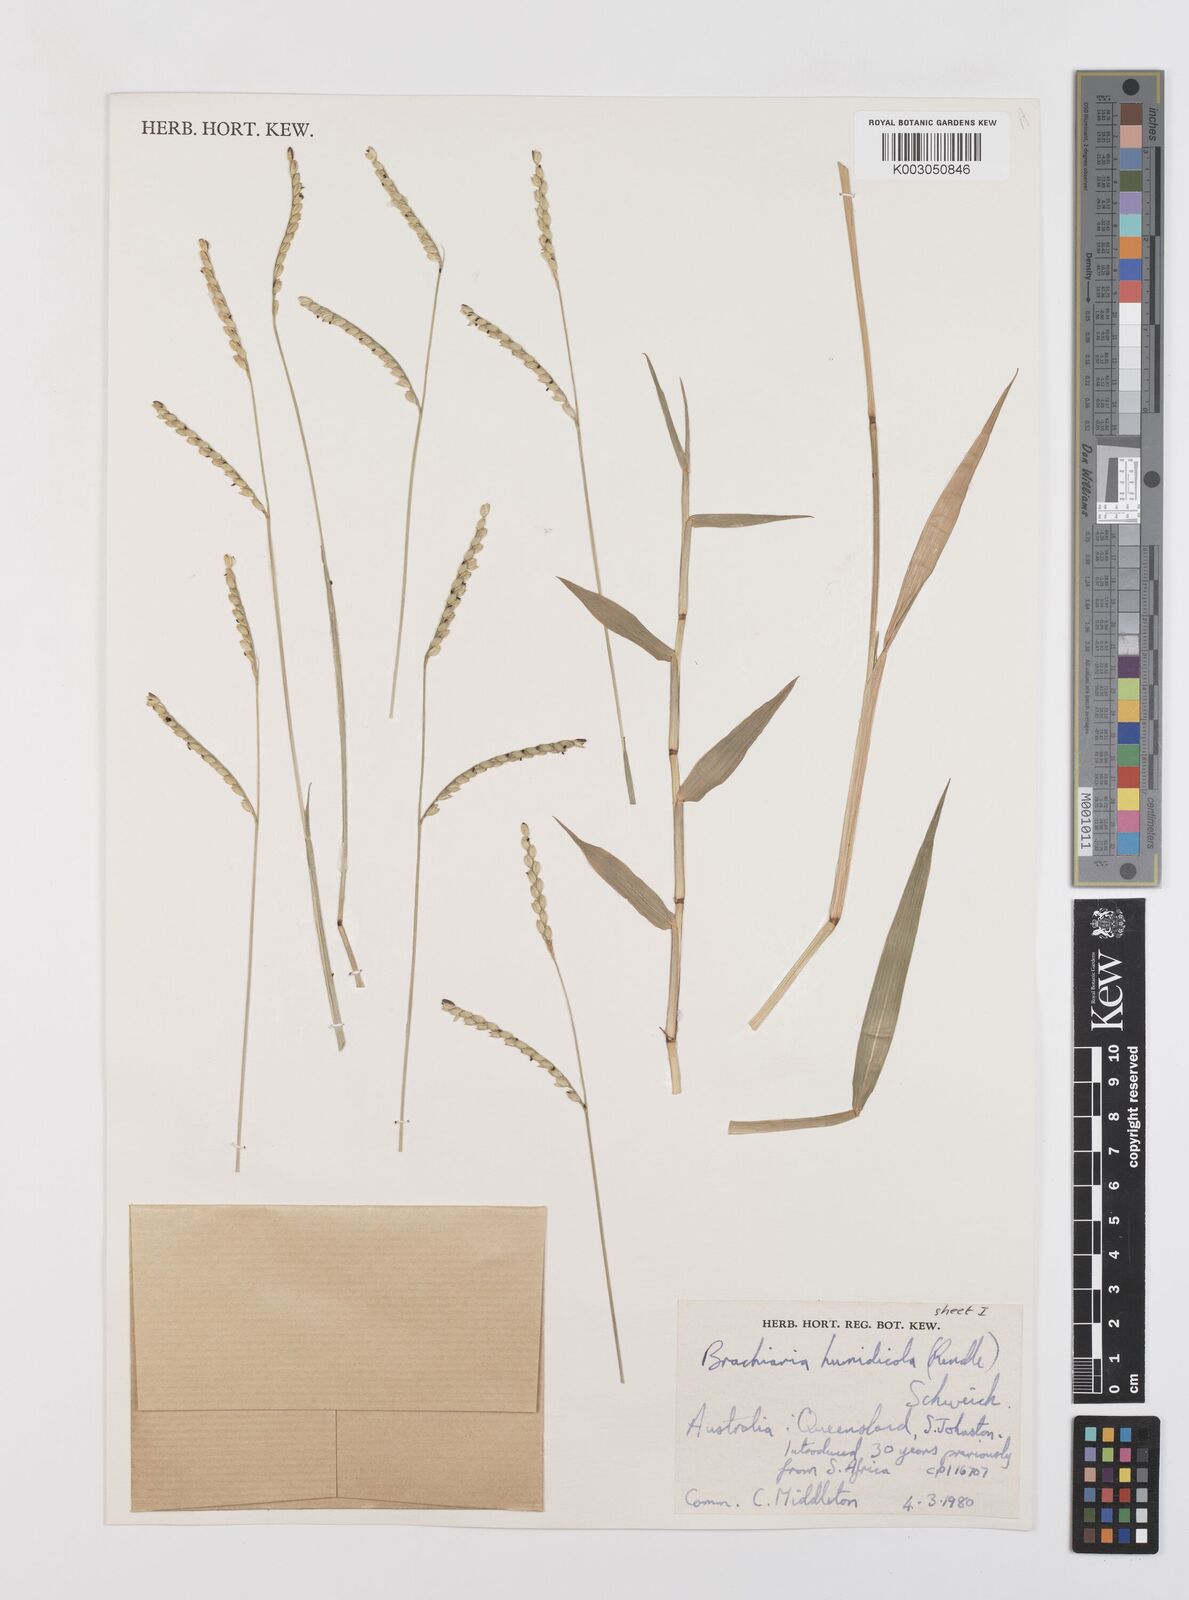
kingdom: Plantae
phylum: Tracheophyta
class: Liliopsida
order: Poales
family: Poaceae
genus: Urochloa
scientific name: Urochloa dictyoneura
